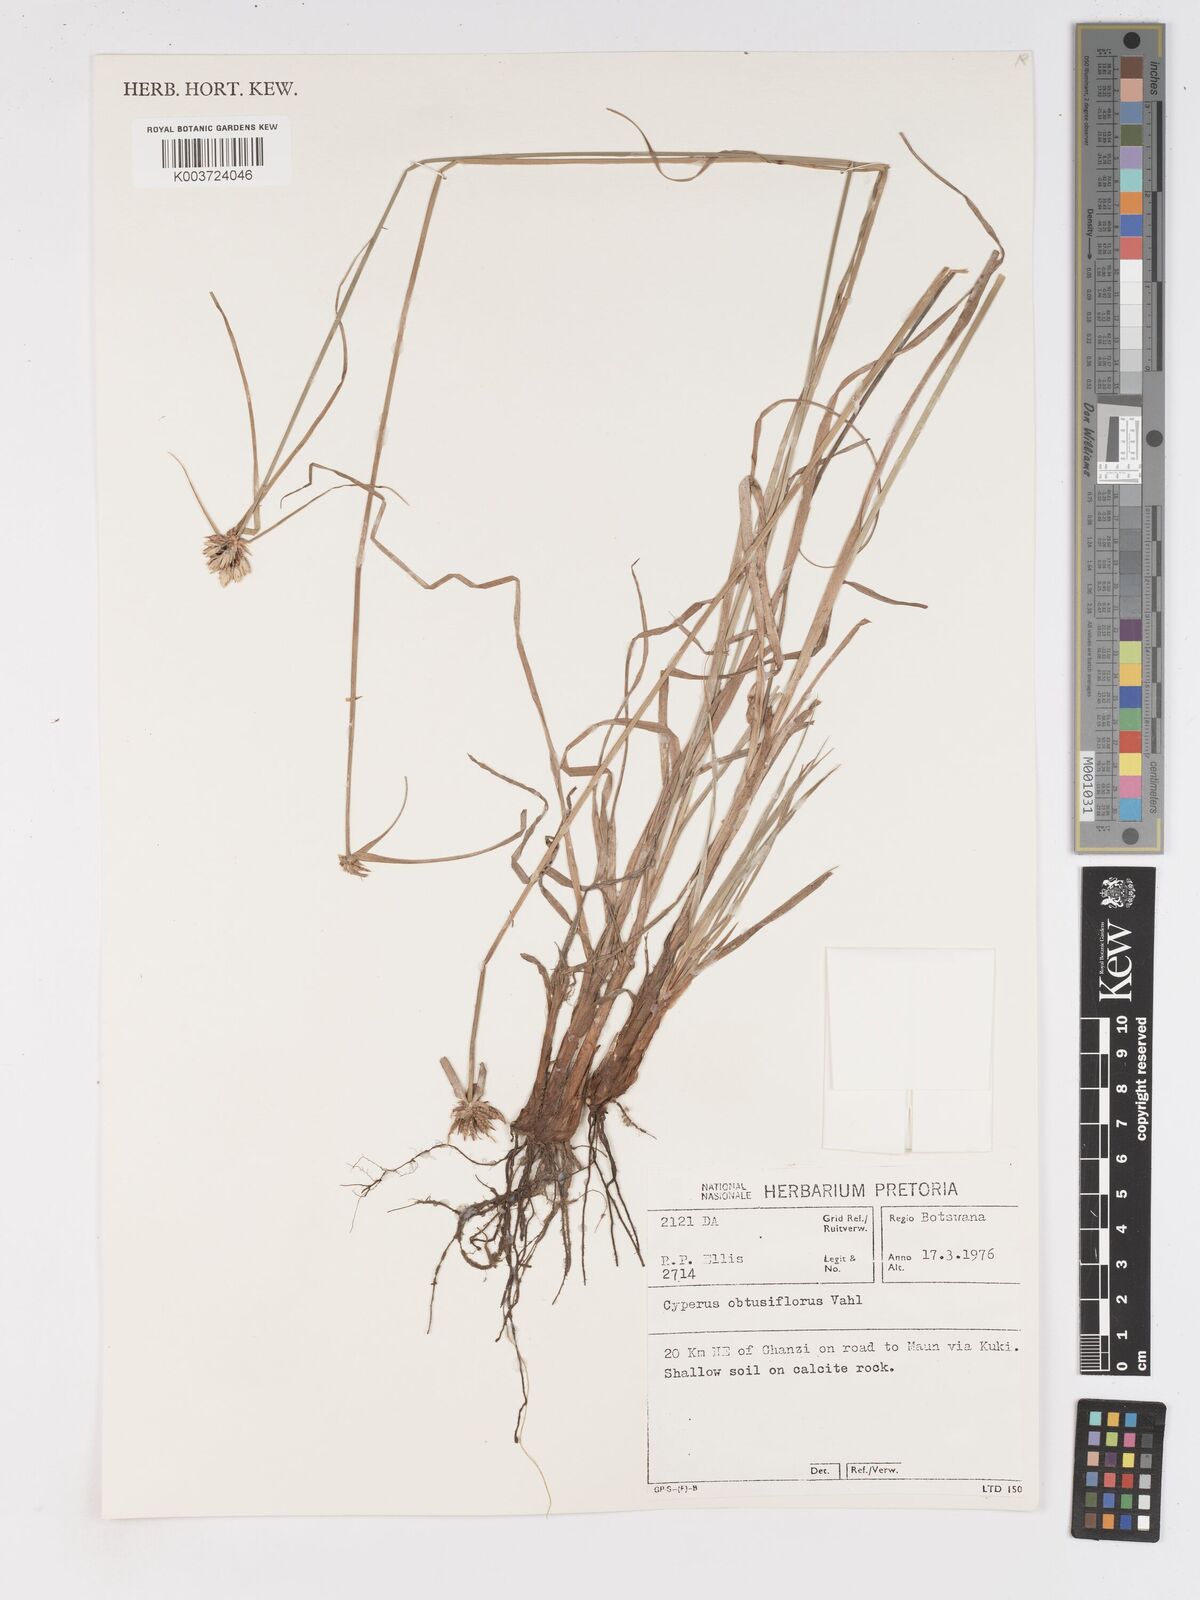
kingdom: Plantae
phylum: Tracheophyta
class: Liliopsida
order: Poales
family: Cyperaceae
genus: Cyperus
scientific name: Cyperus niveus
